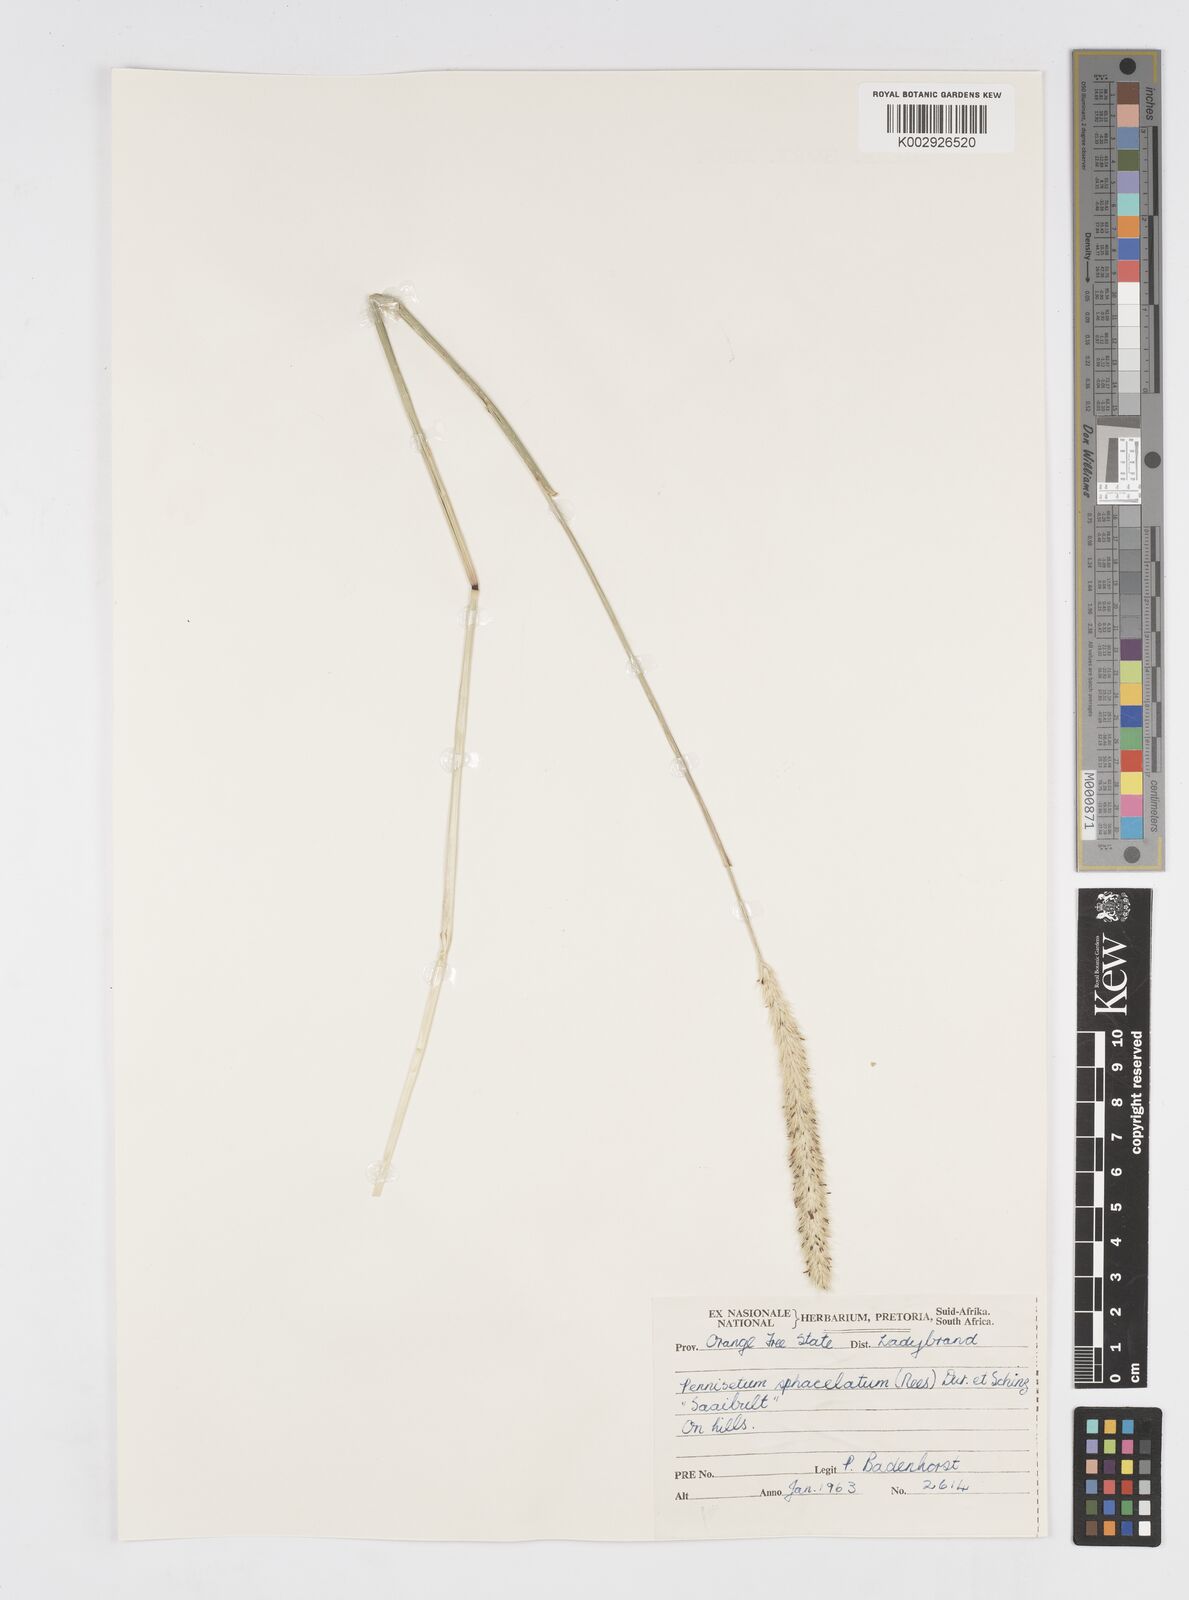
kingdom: Plantae
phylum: Tracheophyta
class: Liliopsida
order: Poales
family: Poaceae
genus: Cenchrus
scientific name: Cenchrus sphacelatus
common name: Bulgras
